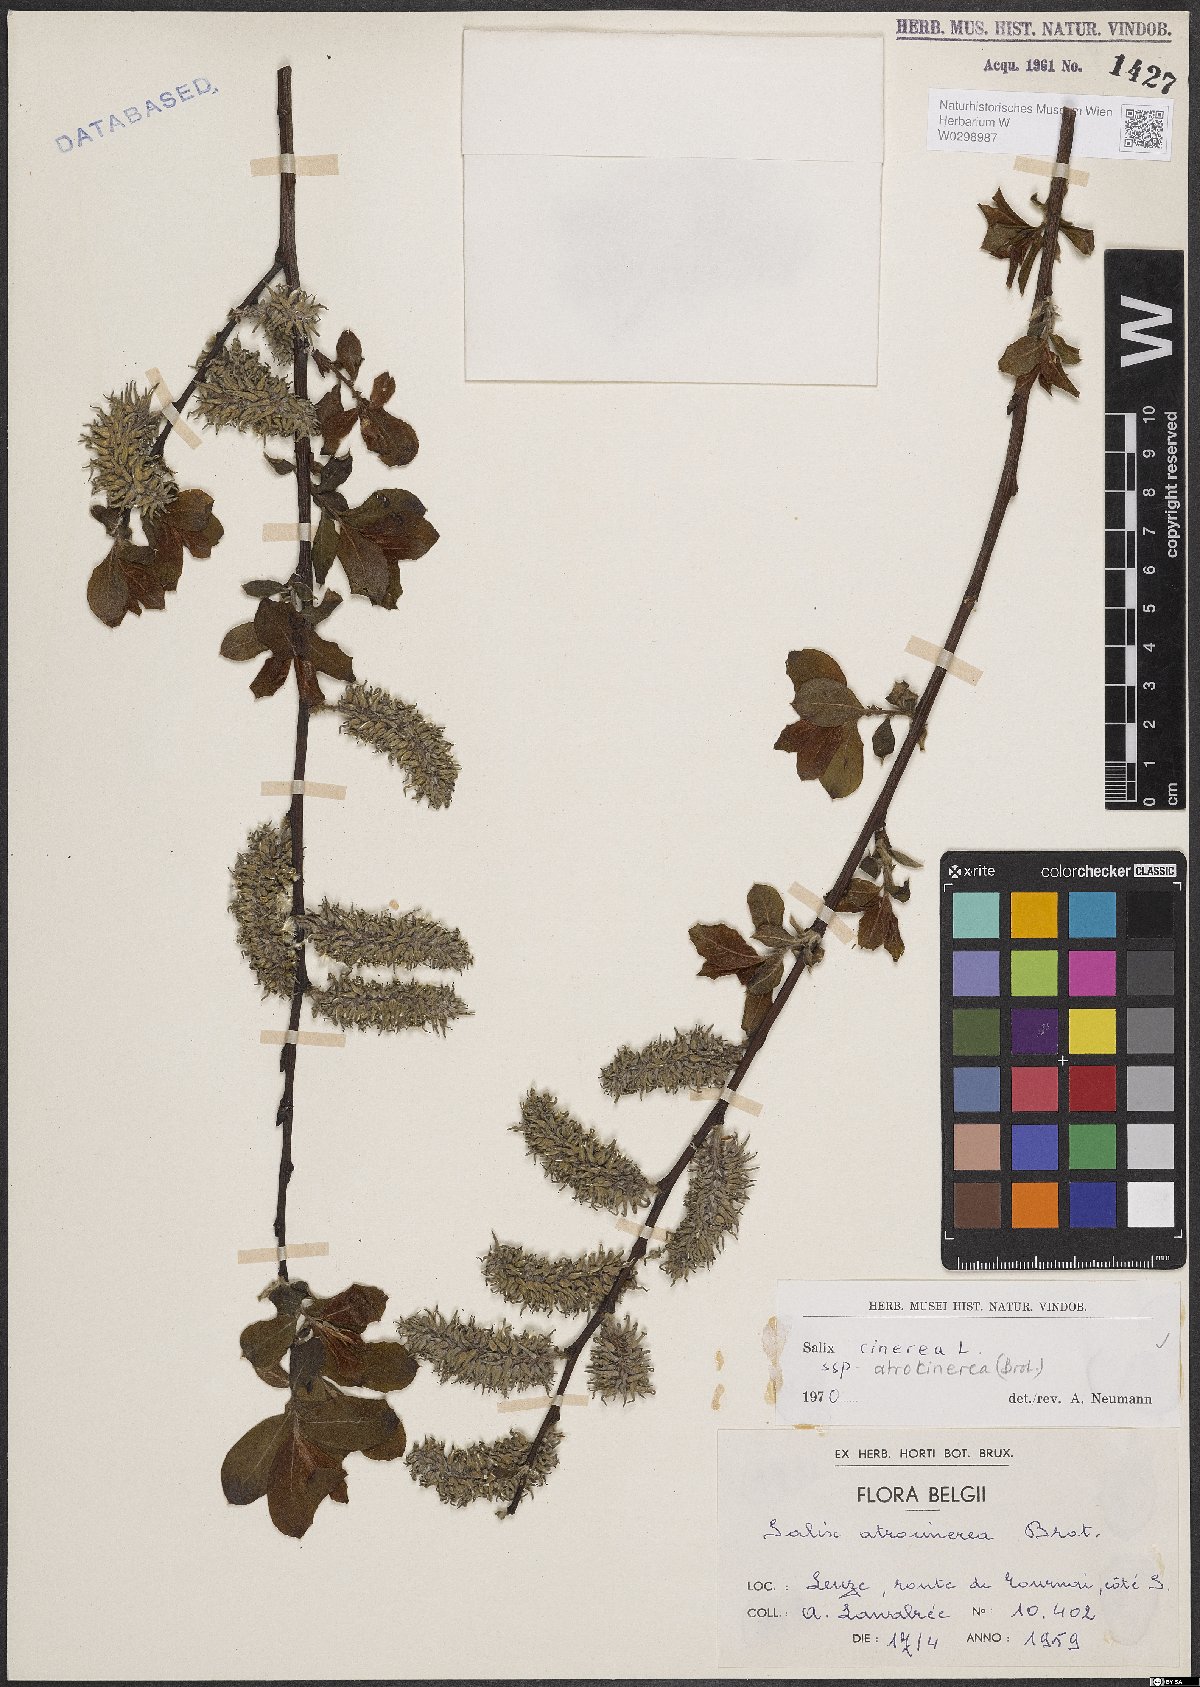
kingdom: Plantae
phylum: Tracheophyta
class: Magnoliopsida
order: Malpighiales
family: Salicaceae
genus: Salix
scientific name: Salix atrocinerea
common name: Rusty willow
